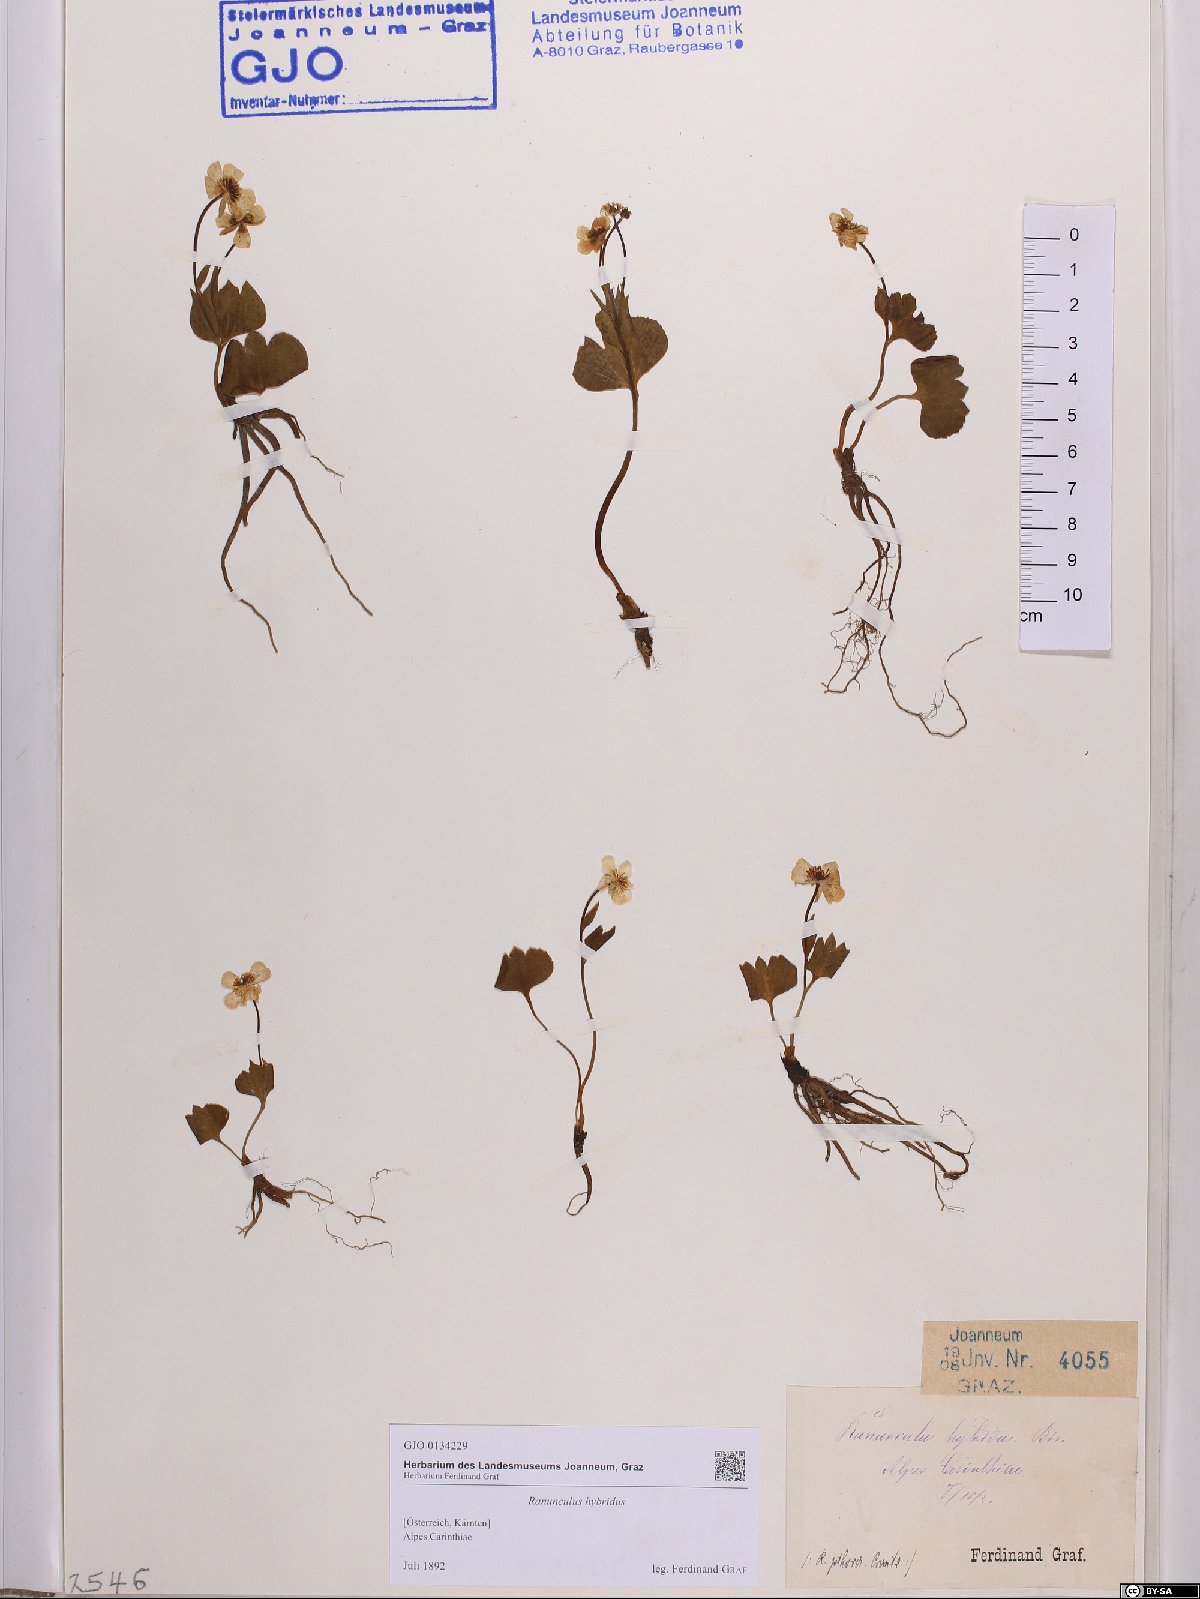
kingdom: Plantae
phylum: Tracheophyta
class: Magnoliopsida
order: Ranunculales
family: Ranunculaceae
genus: Ranunculus
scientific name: Ranunculus hybridus
